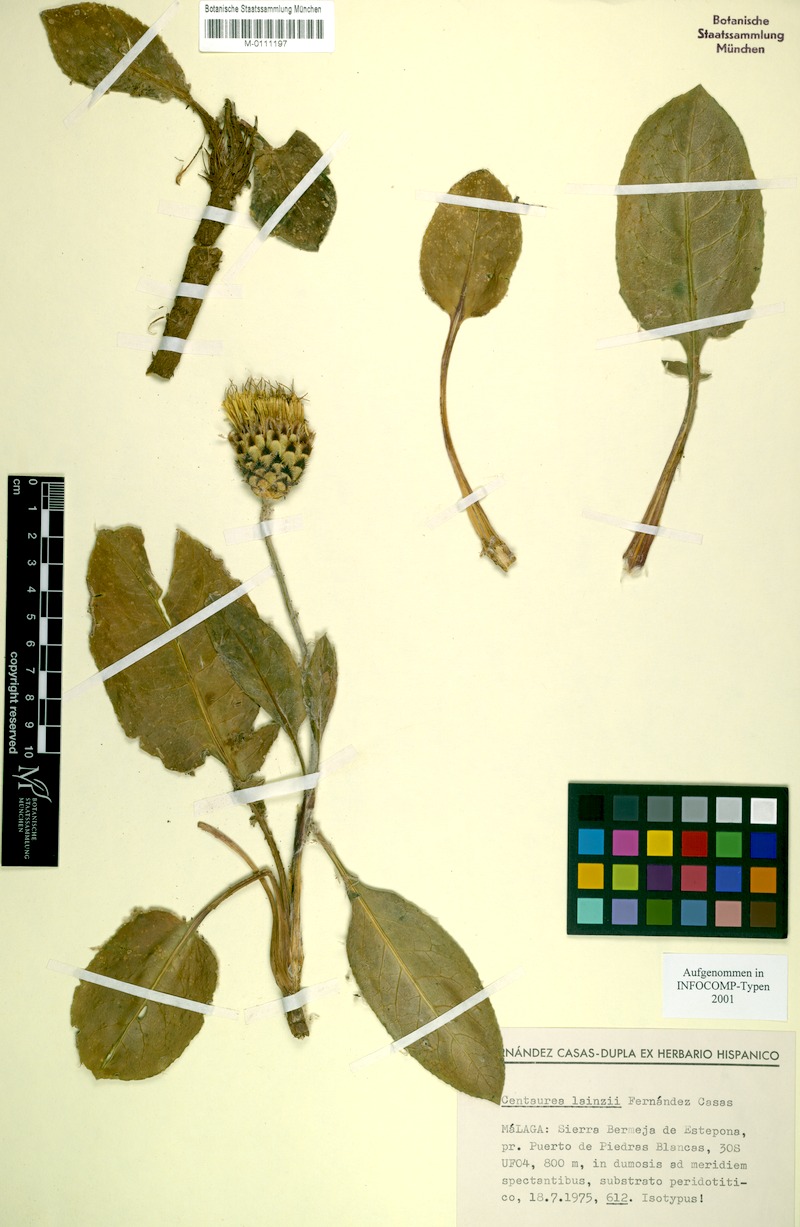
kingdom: Plantae
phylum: Tracheophyta
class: Magnoliopsida
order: Asterales
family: Asteraceae
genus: Centaurea
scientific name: Centaurea lainzii
